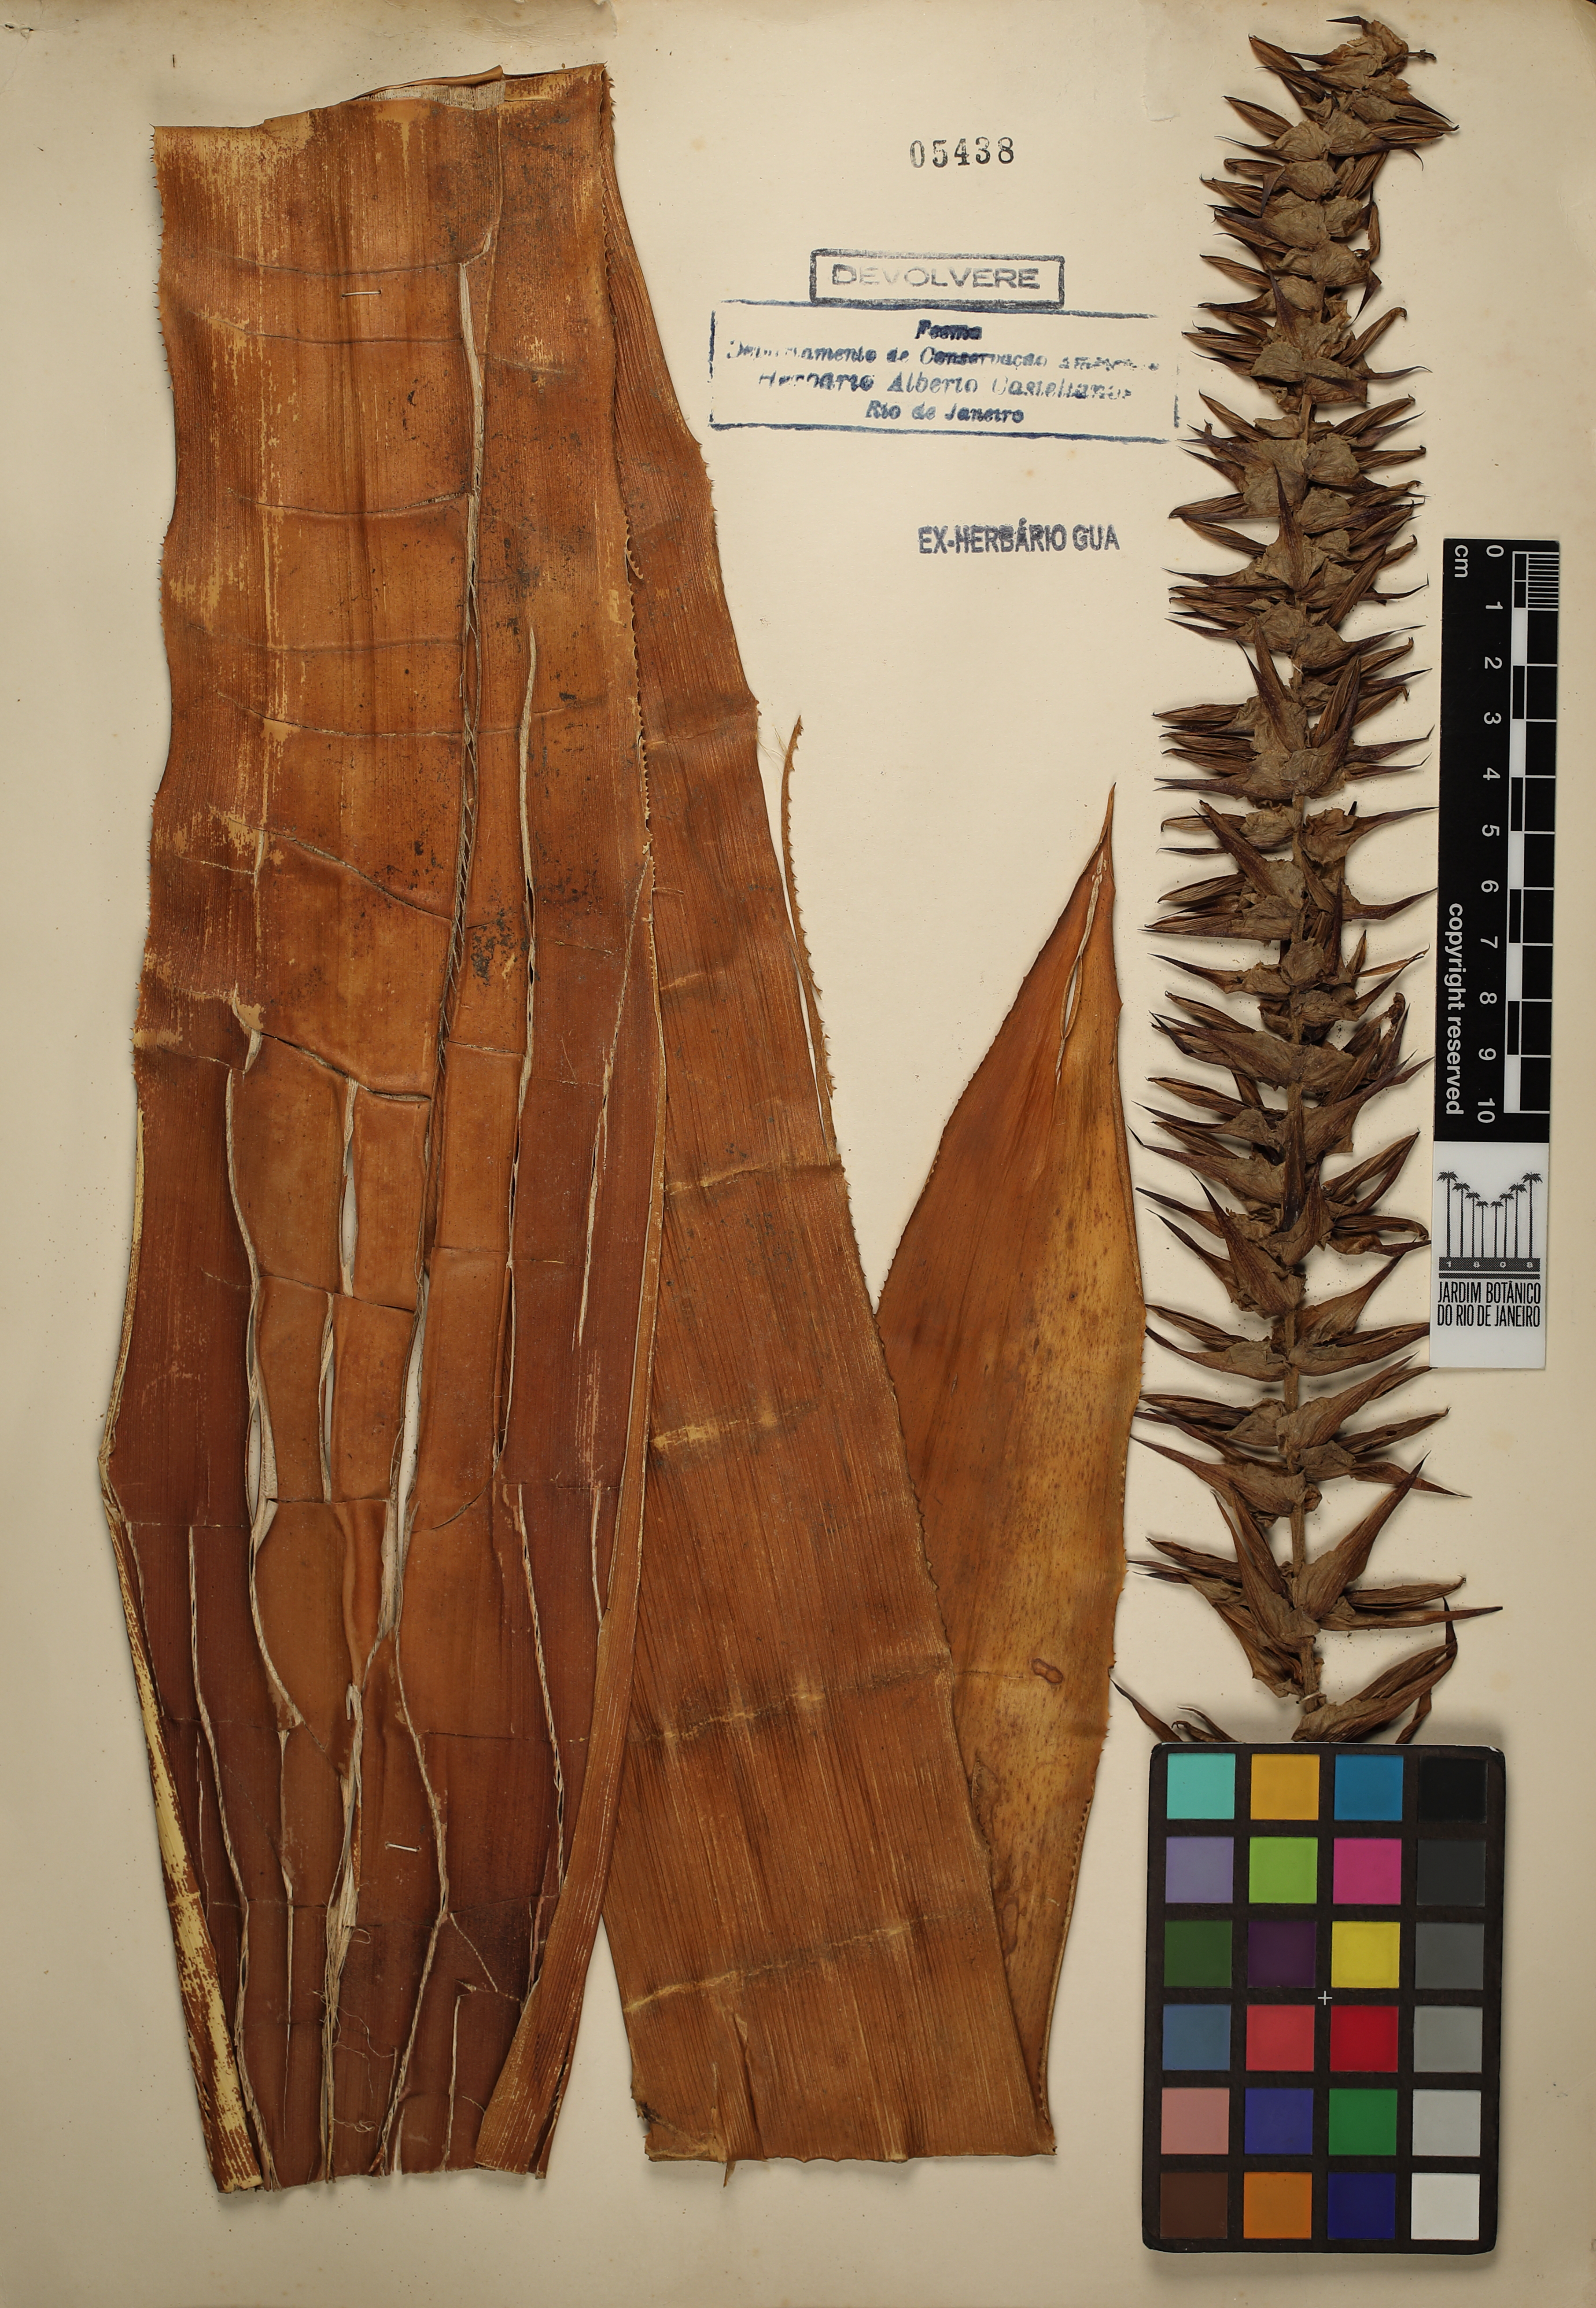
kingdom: Plantae
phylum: Tracheophyta
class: Liliopsida
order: Poales
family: Bromeliaceae
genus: Quesnelia
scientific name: Quesnelia augustocoburgi
